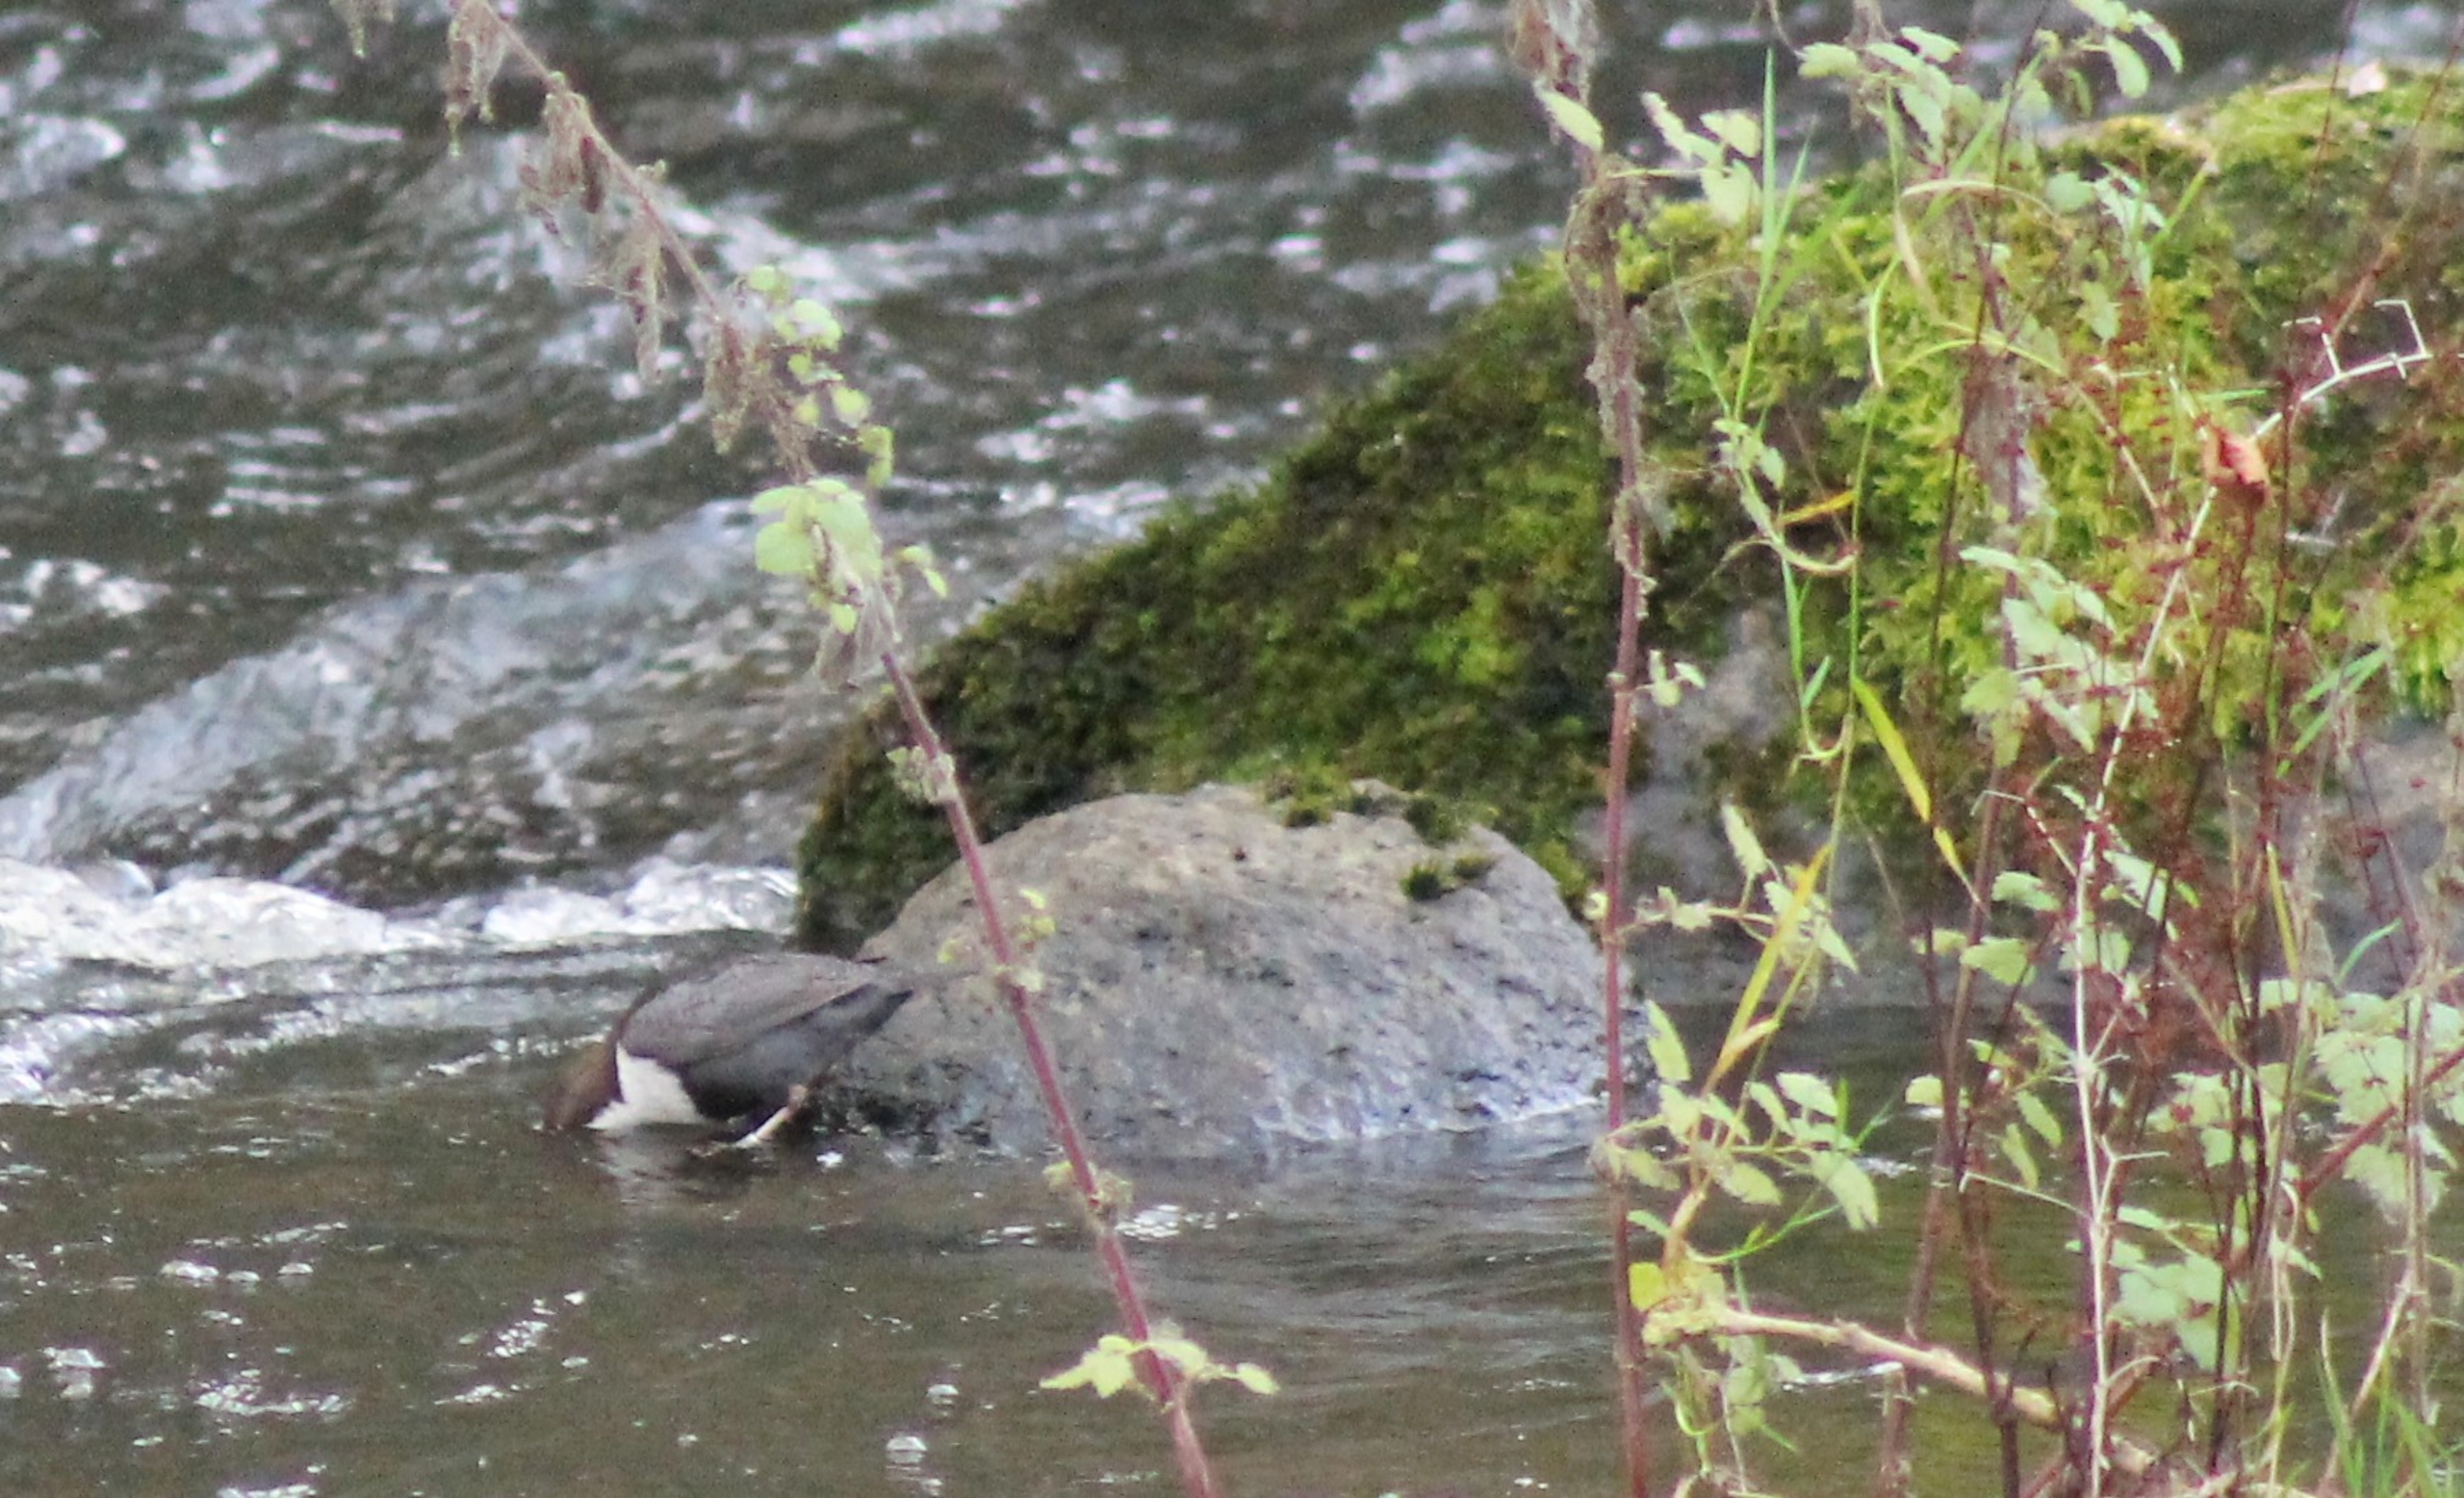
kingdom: Animalia
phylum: Chordata
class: Aves
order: Passeriformes
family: Cinclidae
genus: Cinclus
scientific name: Cinclus cinclus
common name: Vandstær
